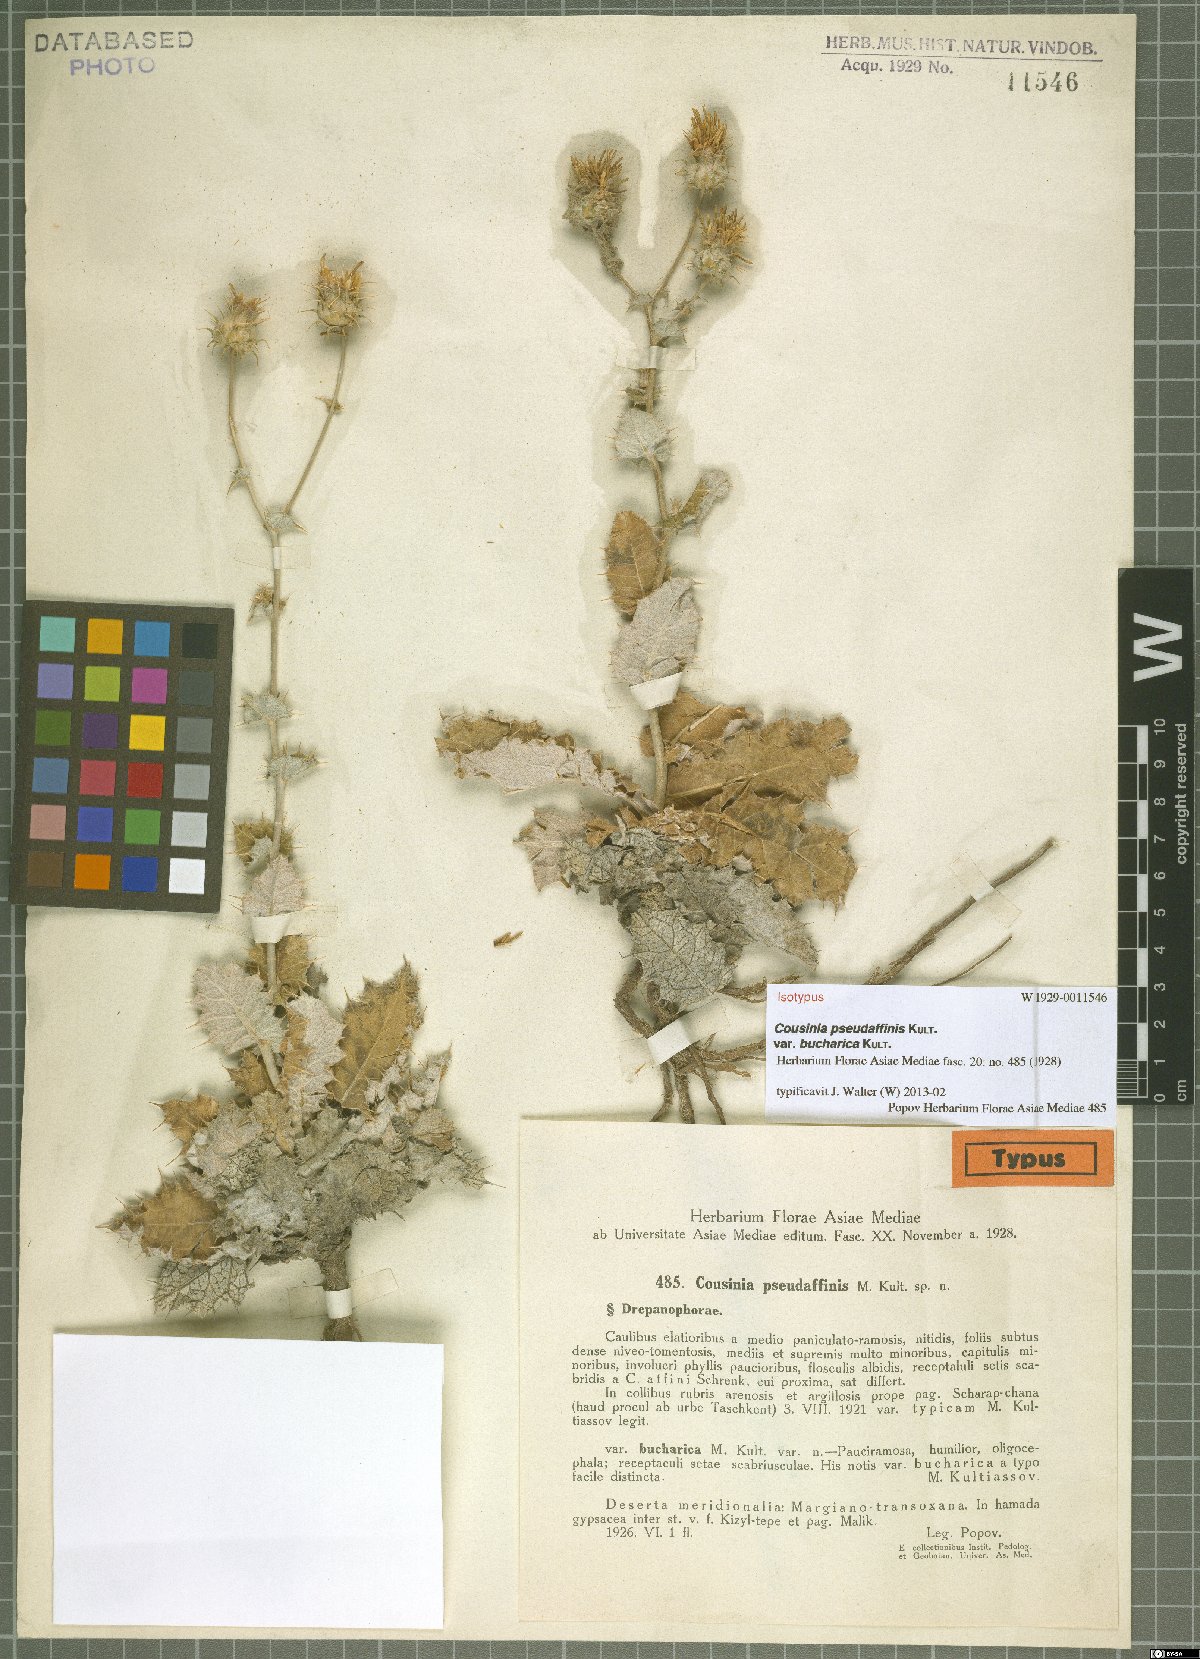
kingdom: Plantae
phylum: Tracheophyta
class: Magnoliopsida
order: Asterales
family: Asteraceae
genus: Cousinia
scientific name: Cousinia hamadae
